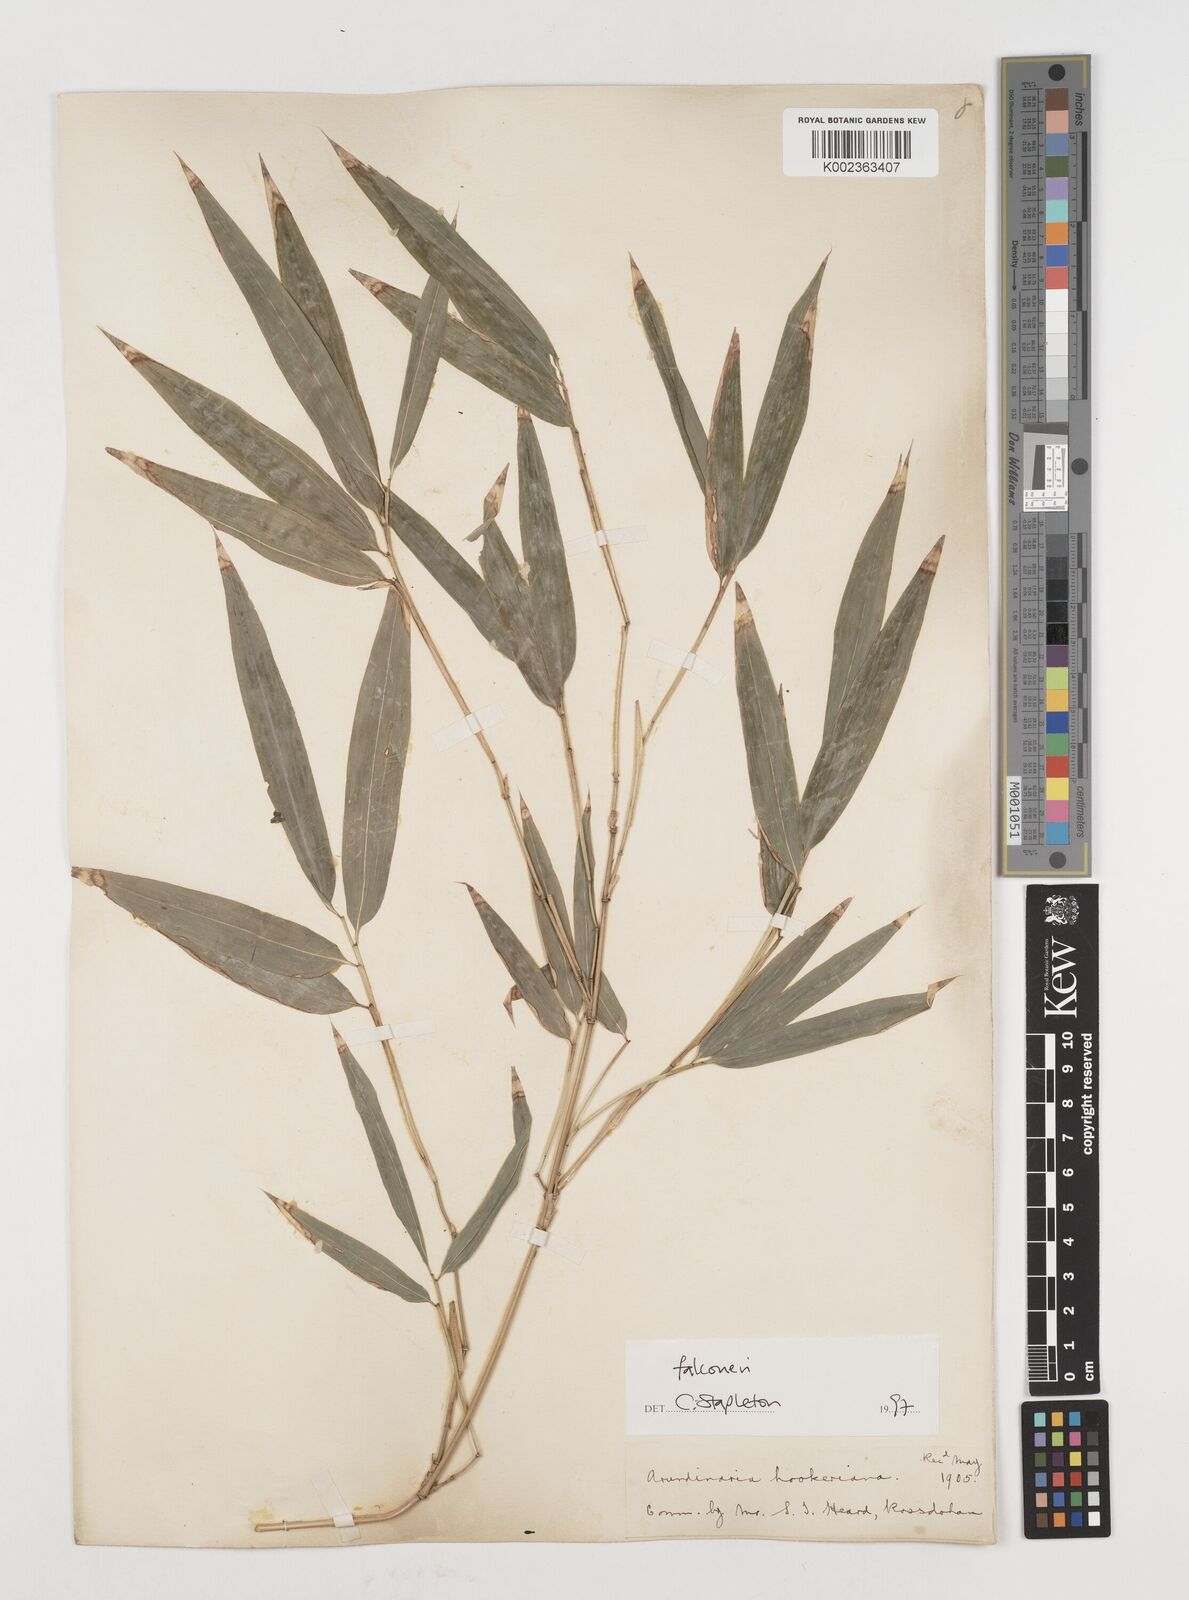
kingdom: Plantae
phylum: Tracheophyta
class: Liliopsida
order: Poales
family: Poaceae
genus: Himalayacalamus
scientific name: Himalayacalamus falconeri
